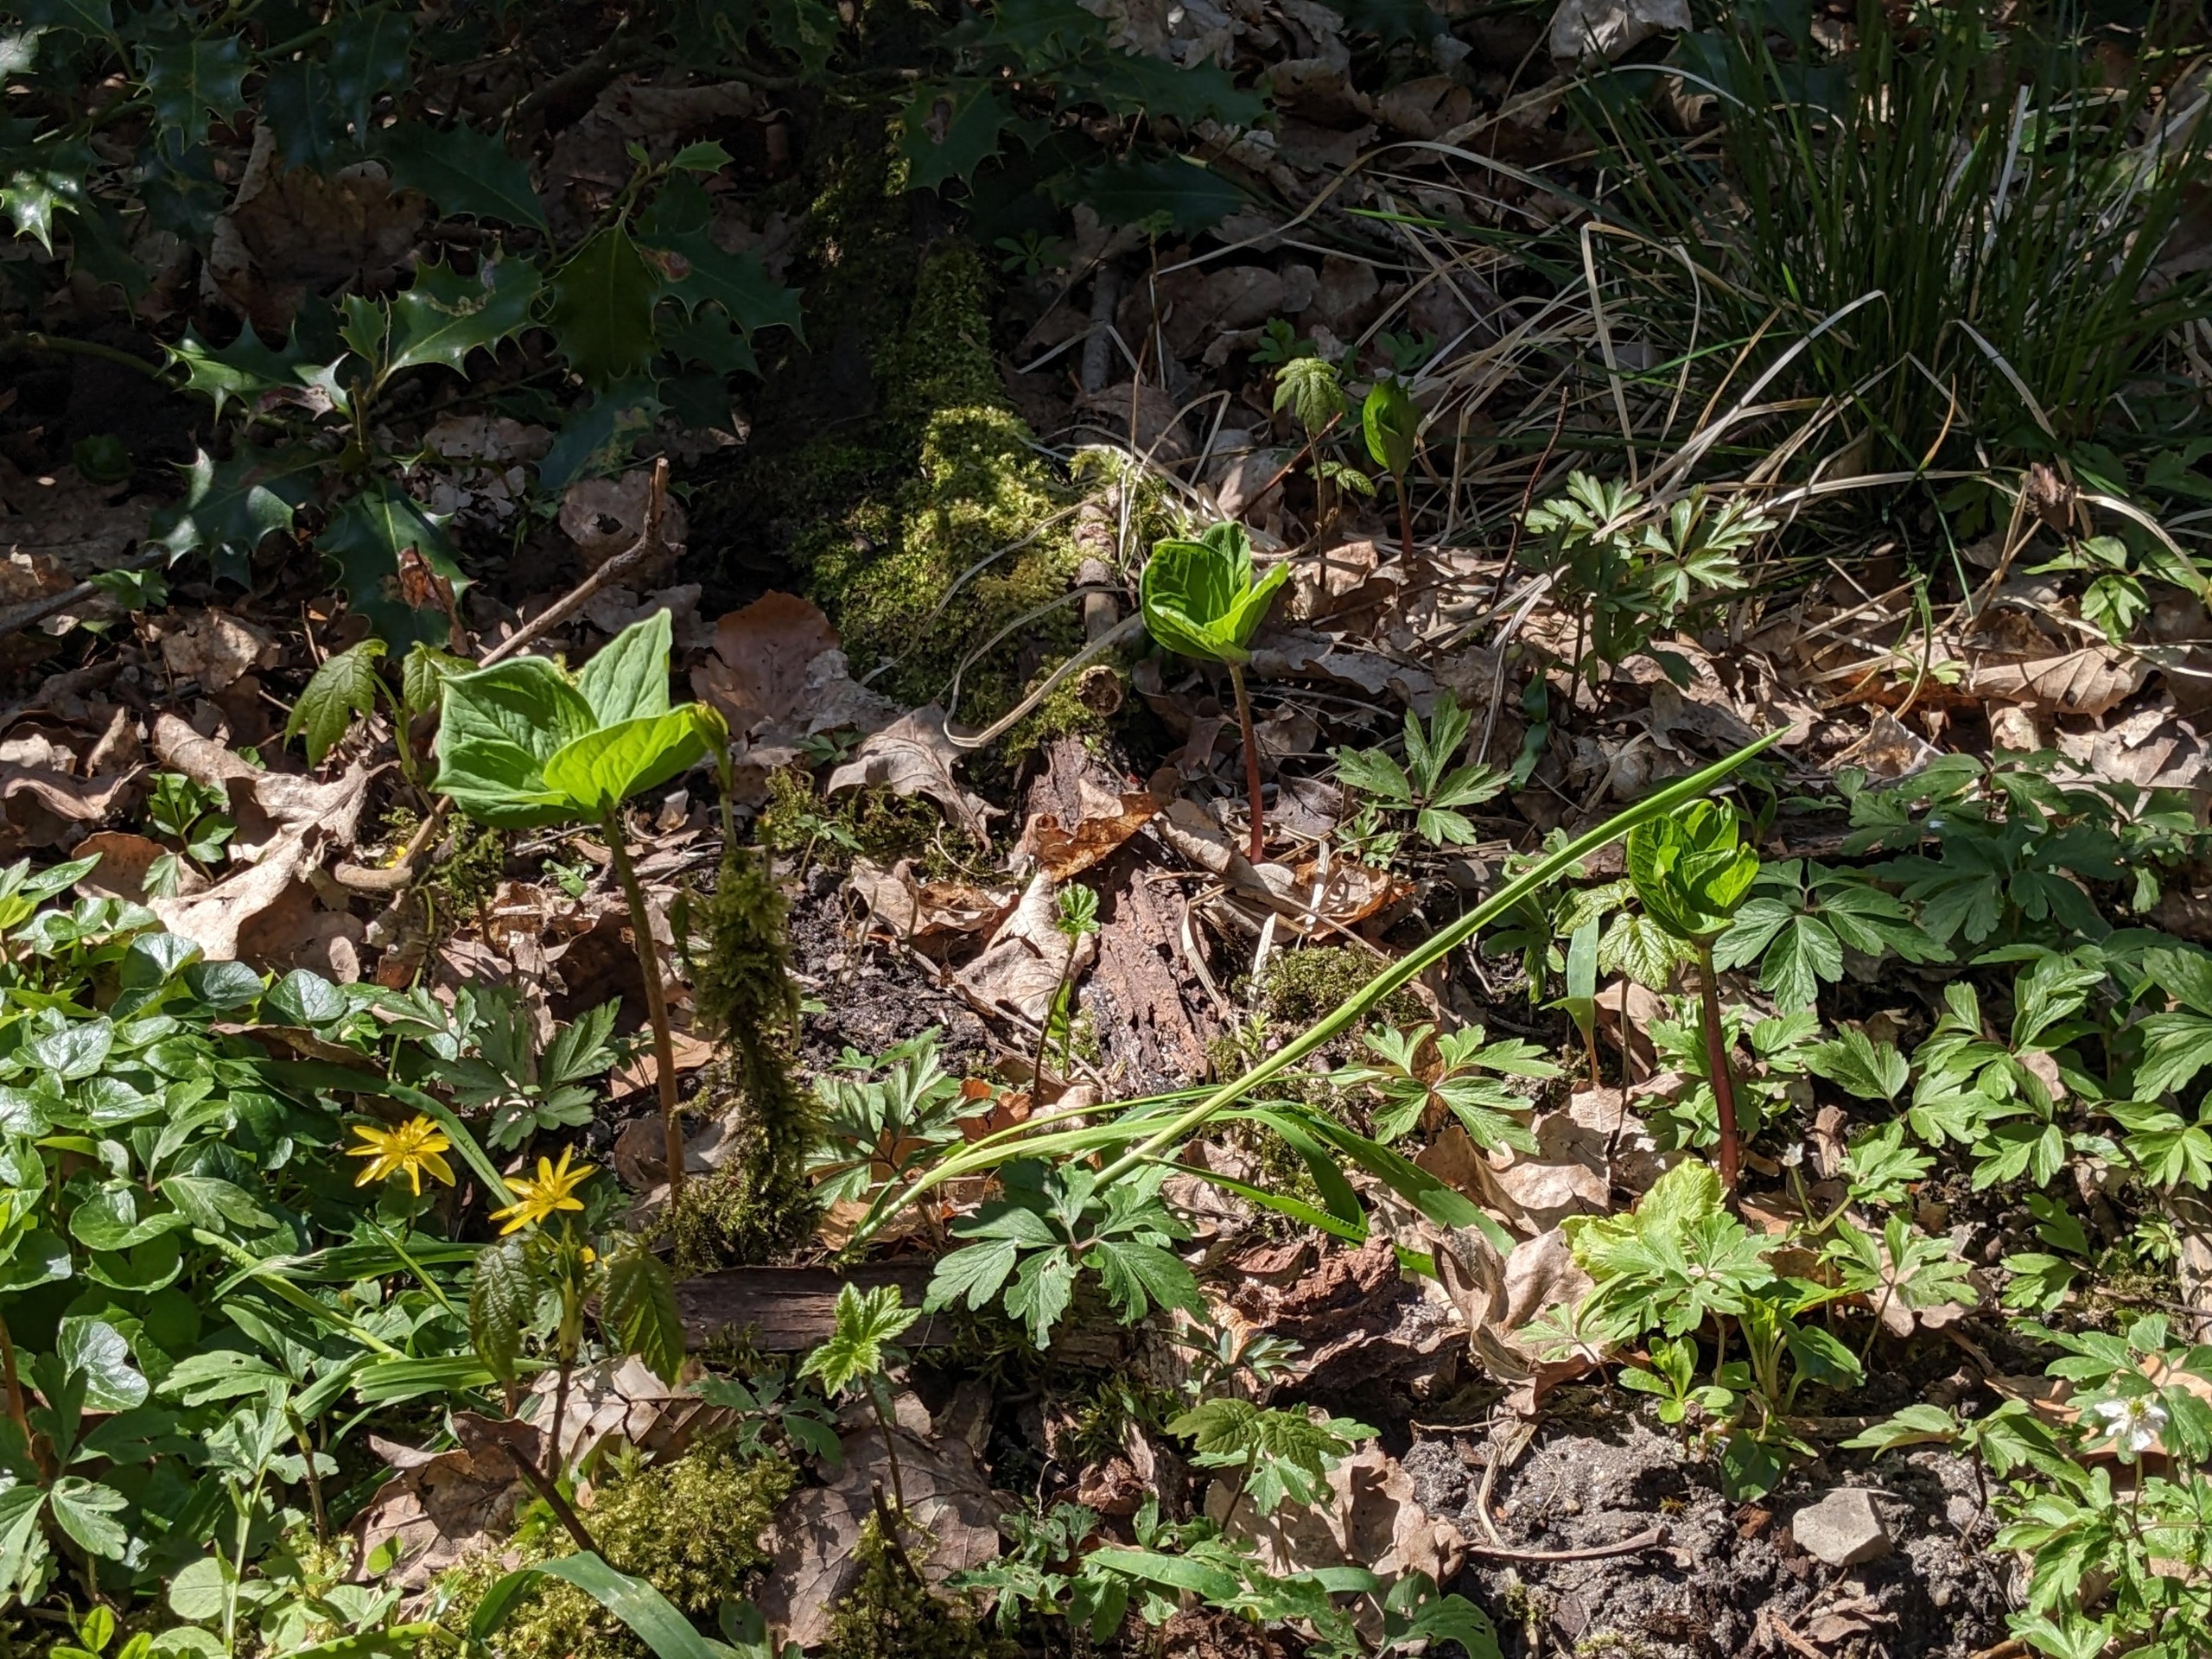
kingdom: Plantae
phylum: Tracheophyta
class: Liliopsida
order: Liliales
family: Melanthiaceae
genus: Paris
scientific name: Paris quadrifolia
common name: Firblad
